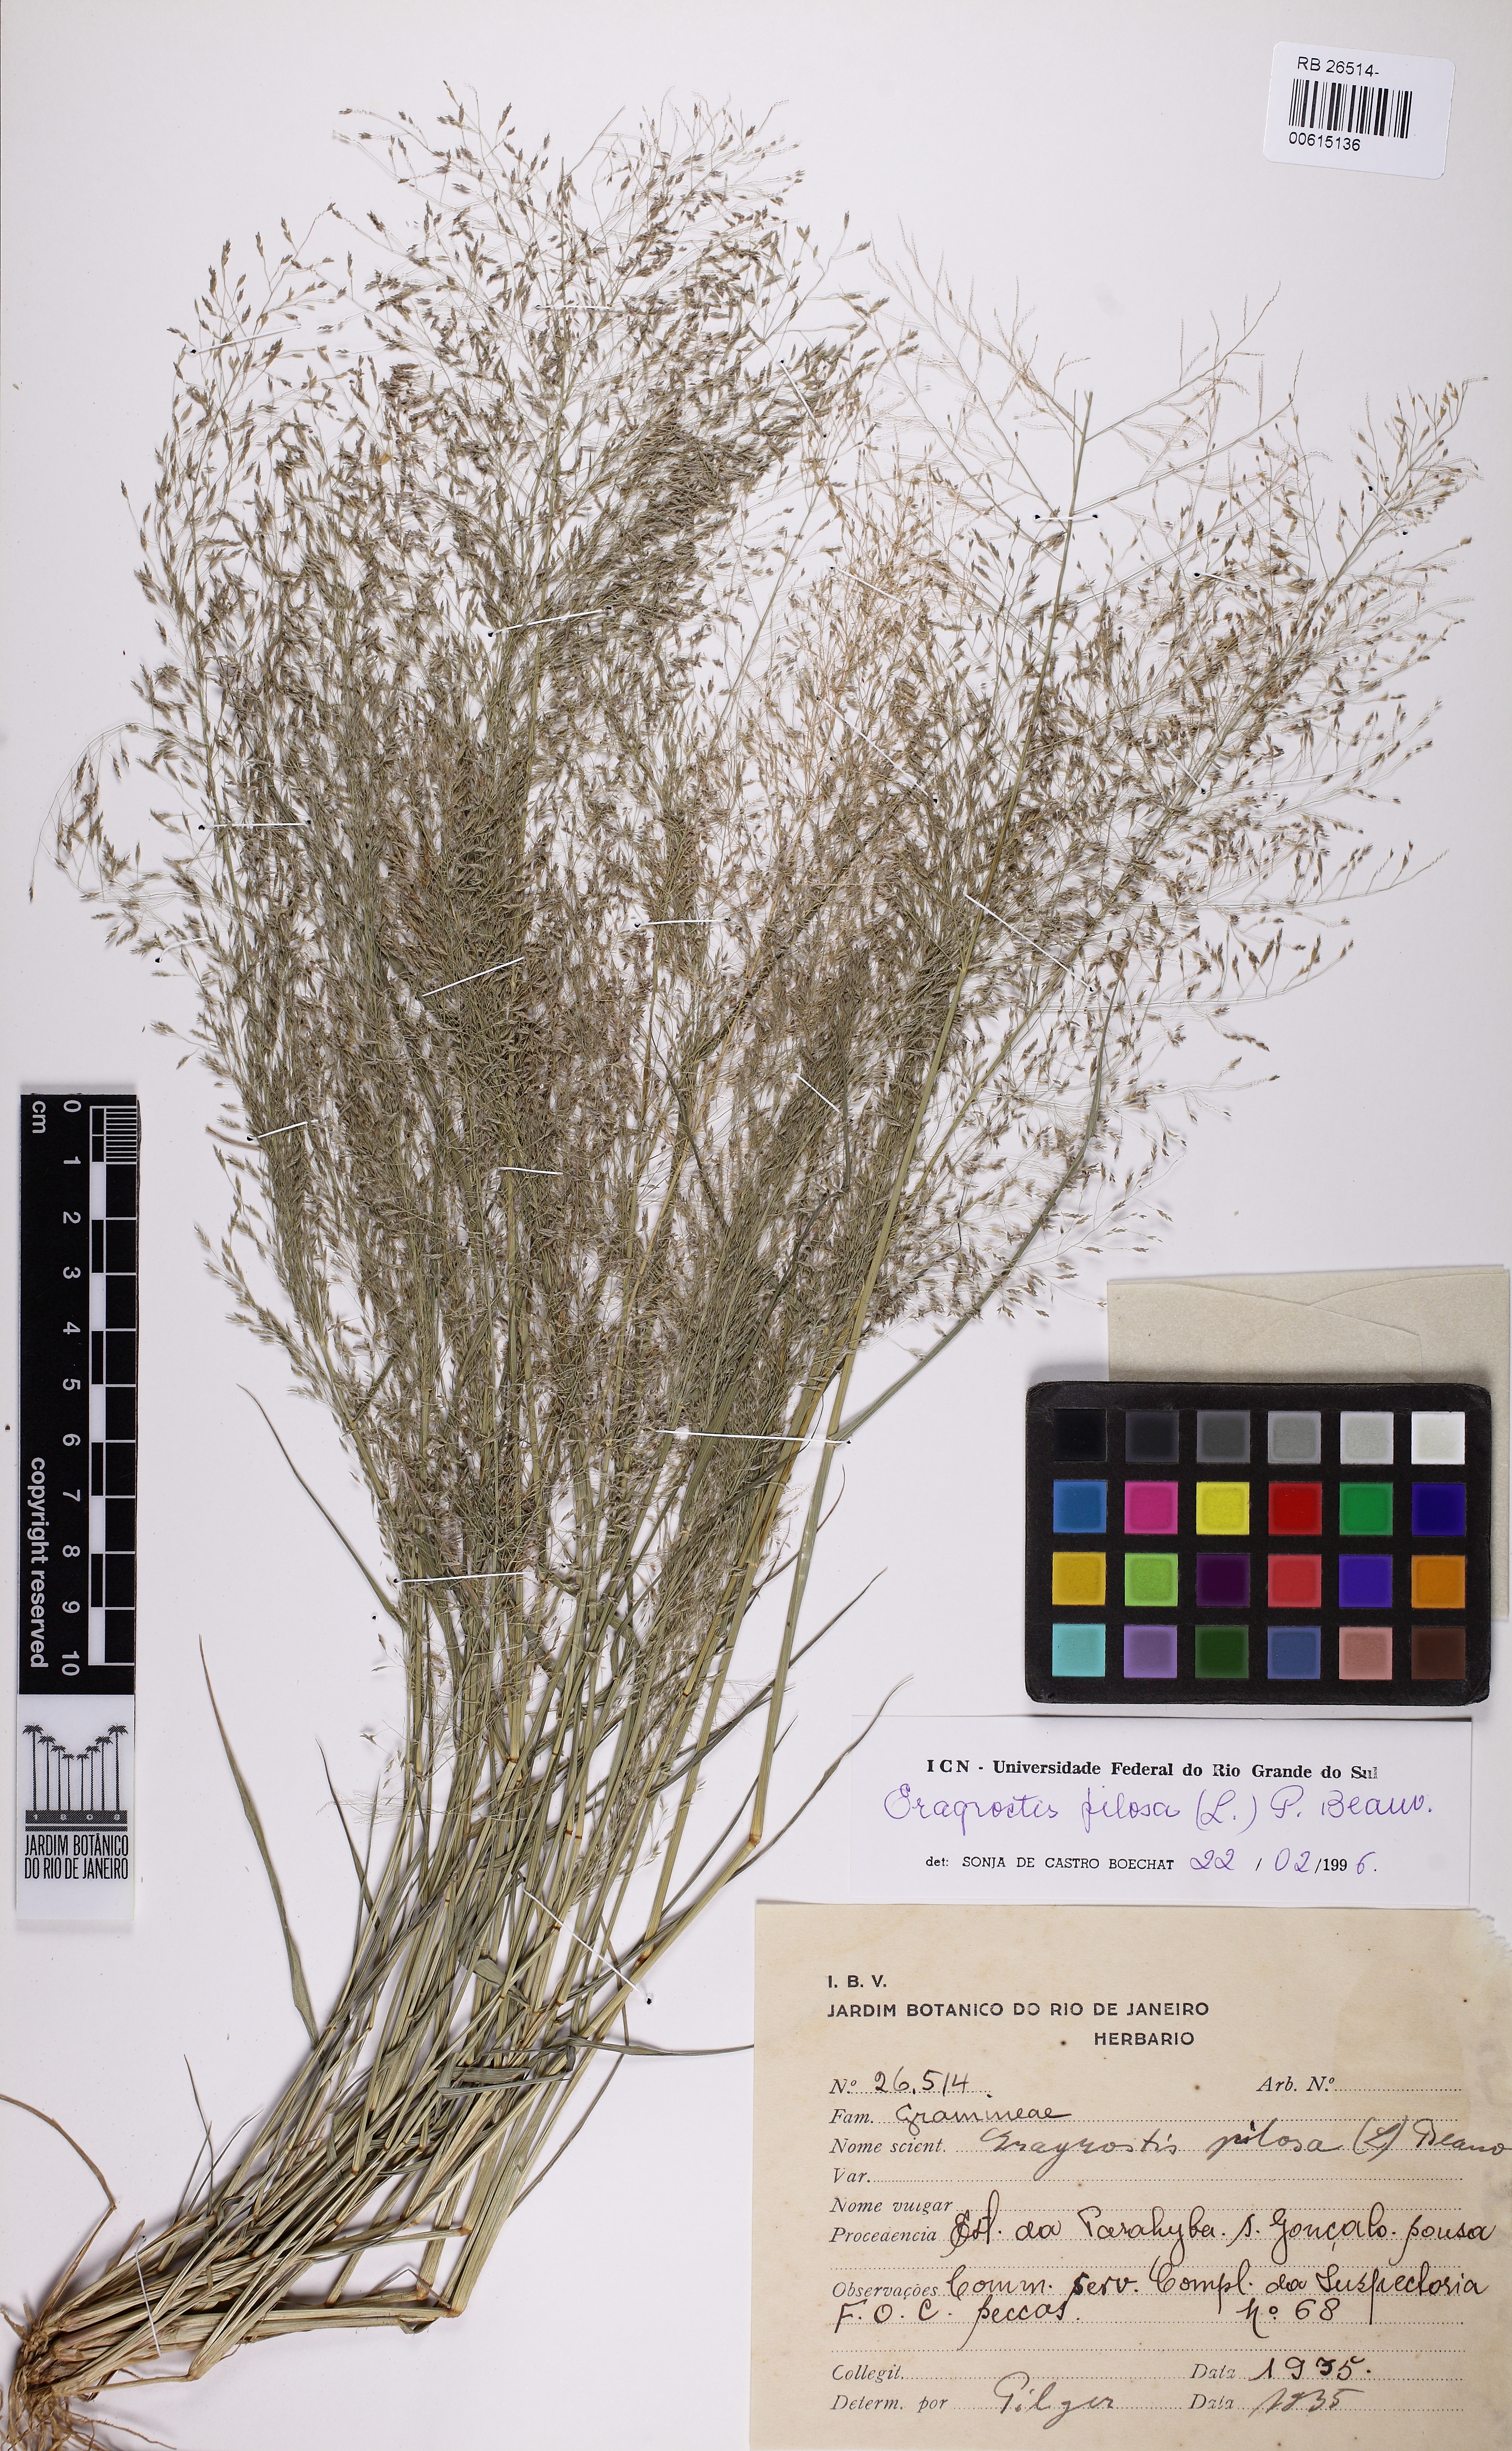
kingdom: Plantae
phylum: Tracheophyta
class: Liliopsida
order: Poales
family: Poaceae
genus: Eragrostis
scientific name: Eragrostis pilosa
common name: Indian lovegrass
